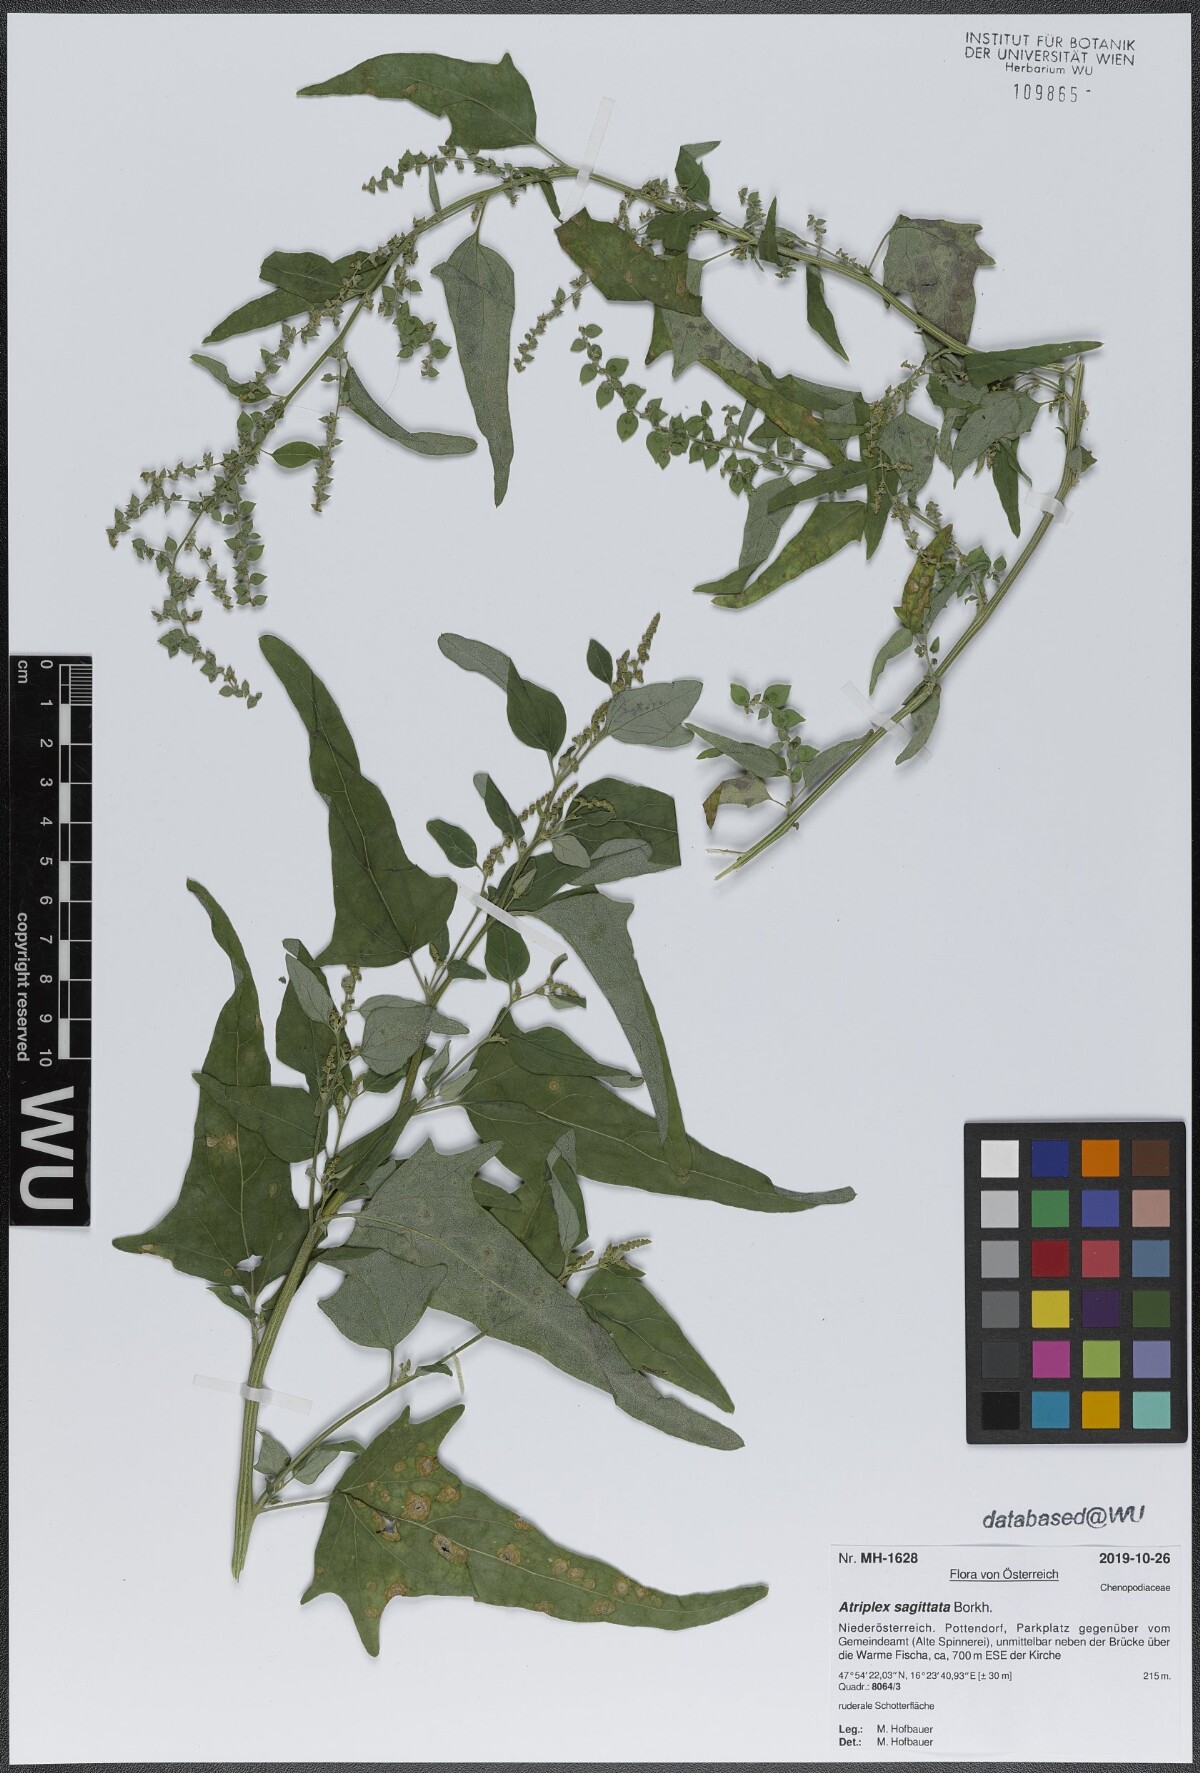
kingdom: Plantae
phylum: Tracheophyta
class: Magnoliopsida
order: Caryophyllales
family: Amaranthaceae
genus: Atriplex
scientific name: Atriplex sagittata
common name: Purple orache
